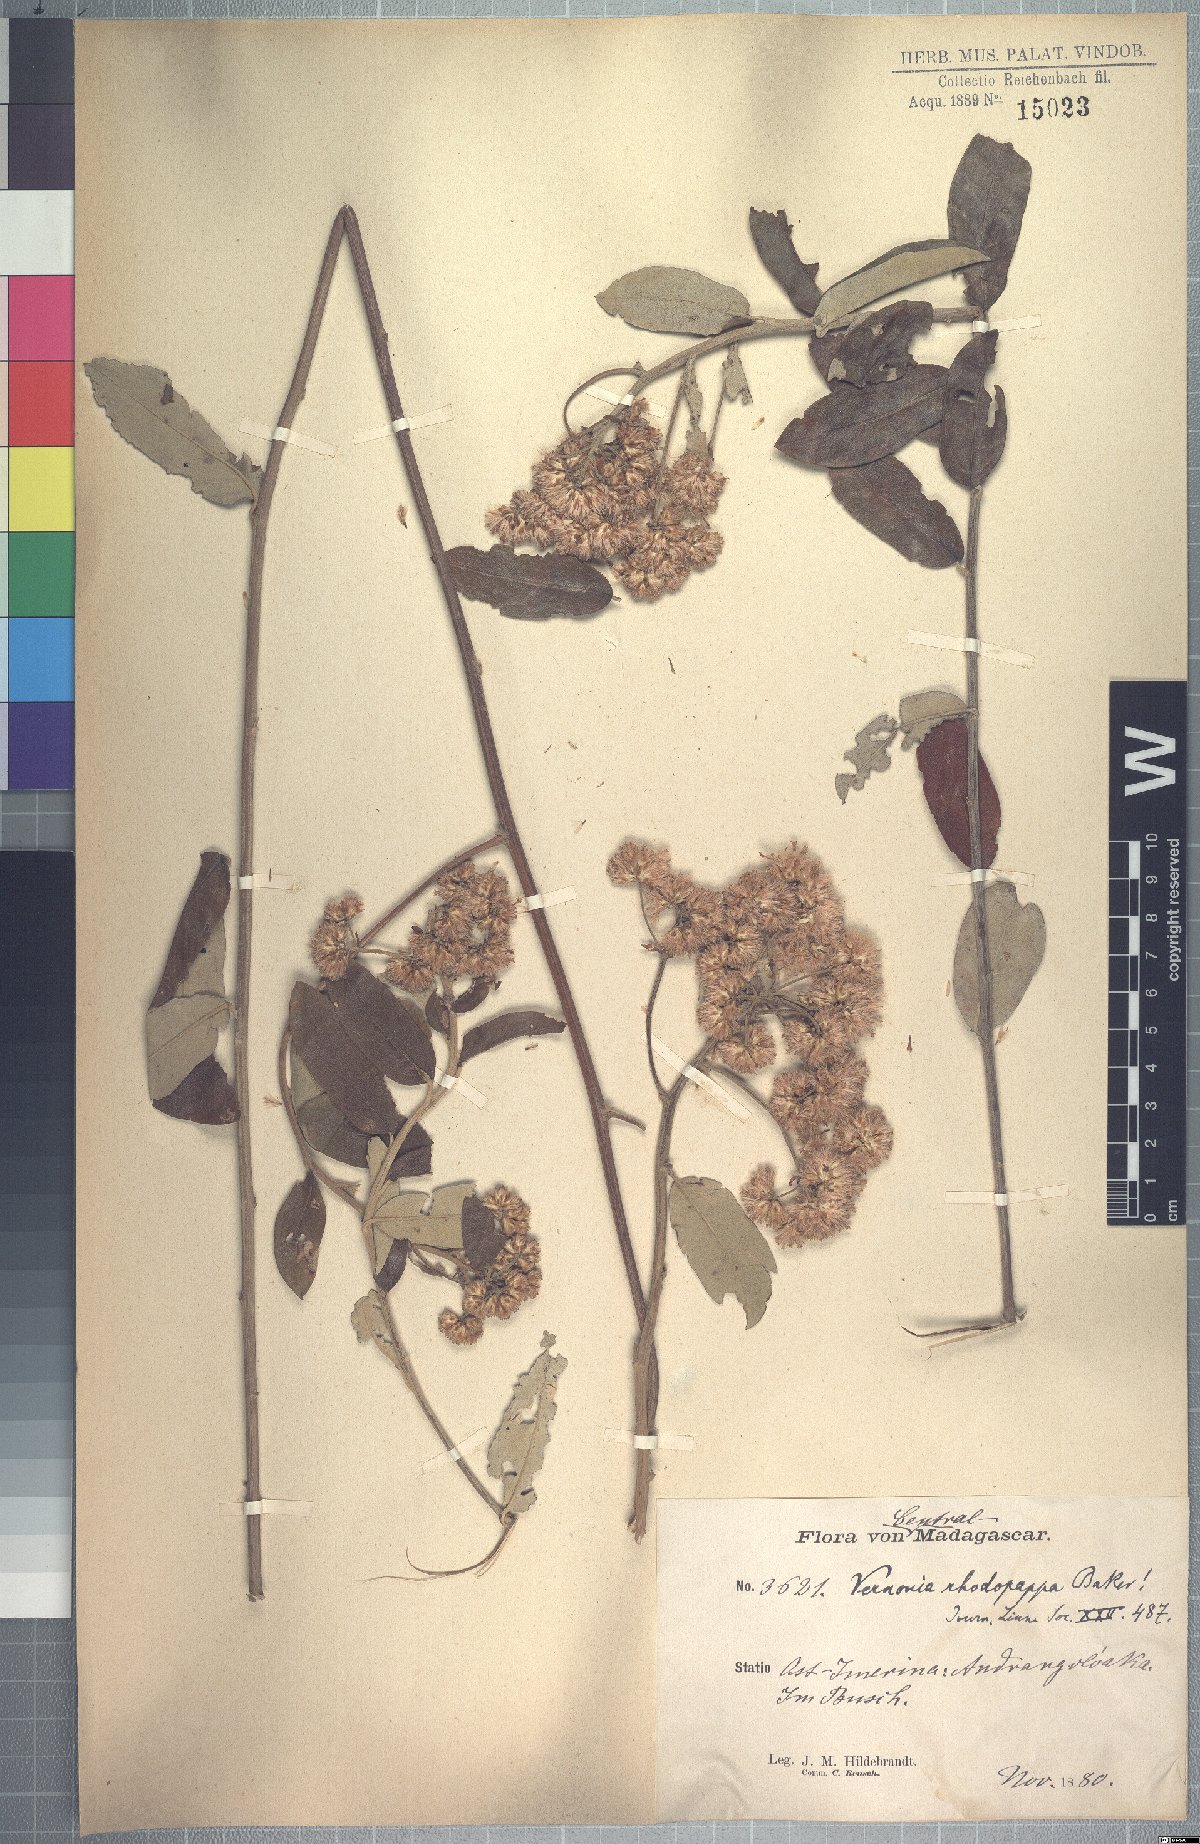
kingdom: Plantae
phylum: Tracheophyta
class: Magnoliopsida
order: Asterales
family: Asteraceae
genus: Distephanus
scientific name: Distephanus rhodopappus
